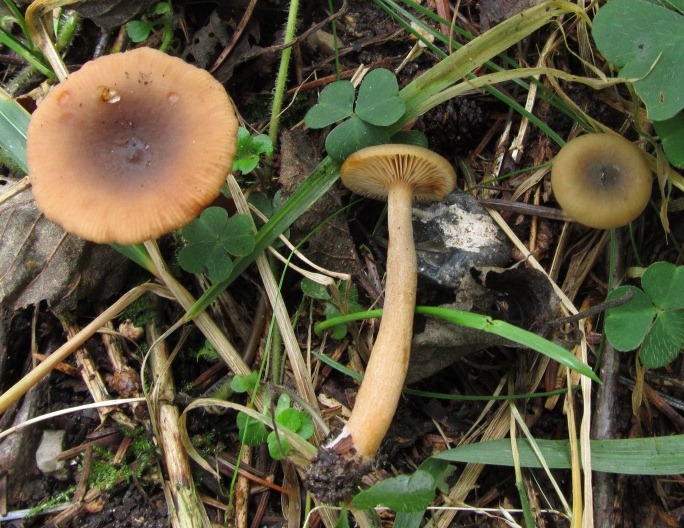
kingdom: Fungi
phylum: Basidiomycota
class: Agaricomycetes
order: Russulales
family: Russulaceae
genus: Lactarius
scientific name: Lactarius cyathuliformis
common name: mørkøjet mælkehat
